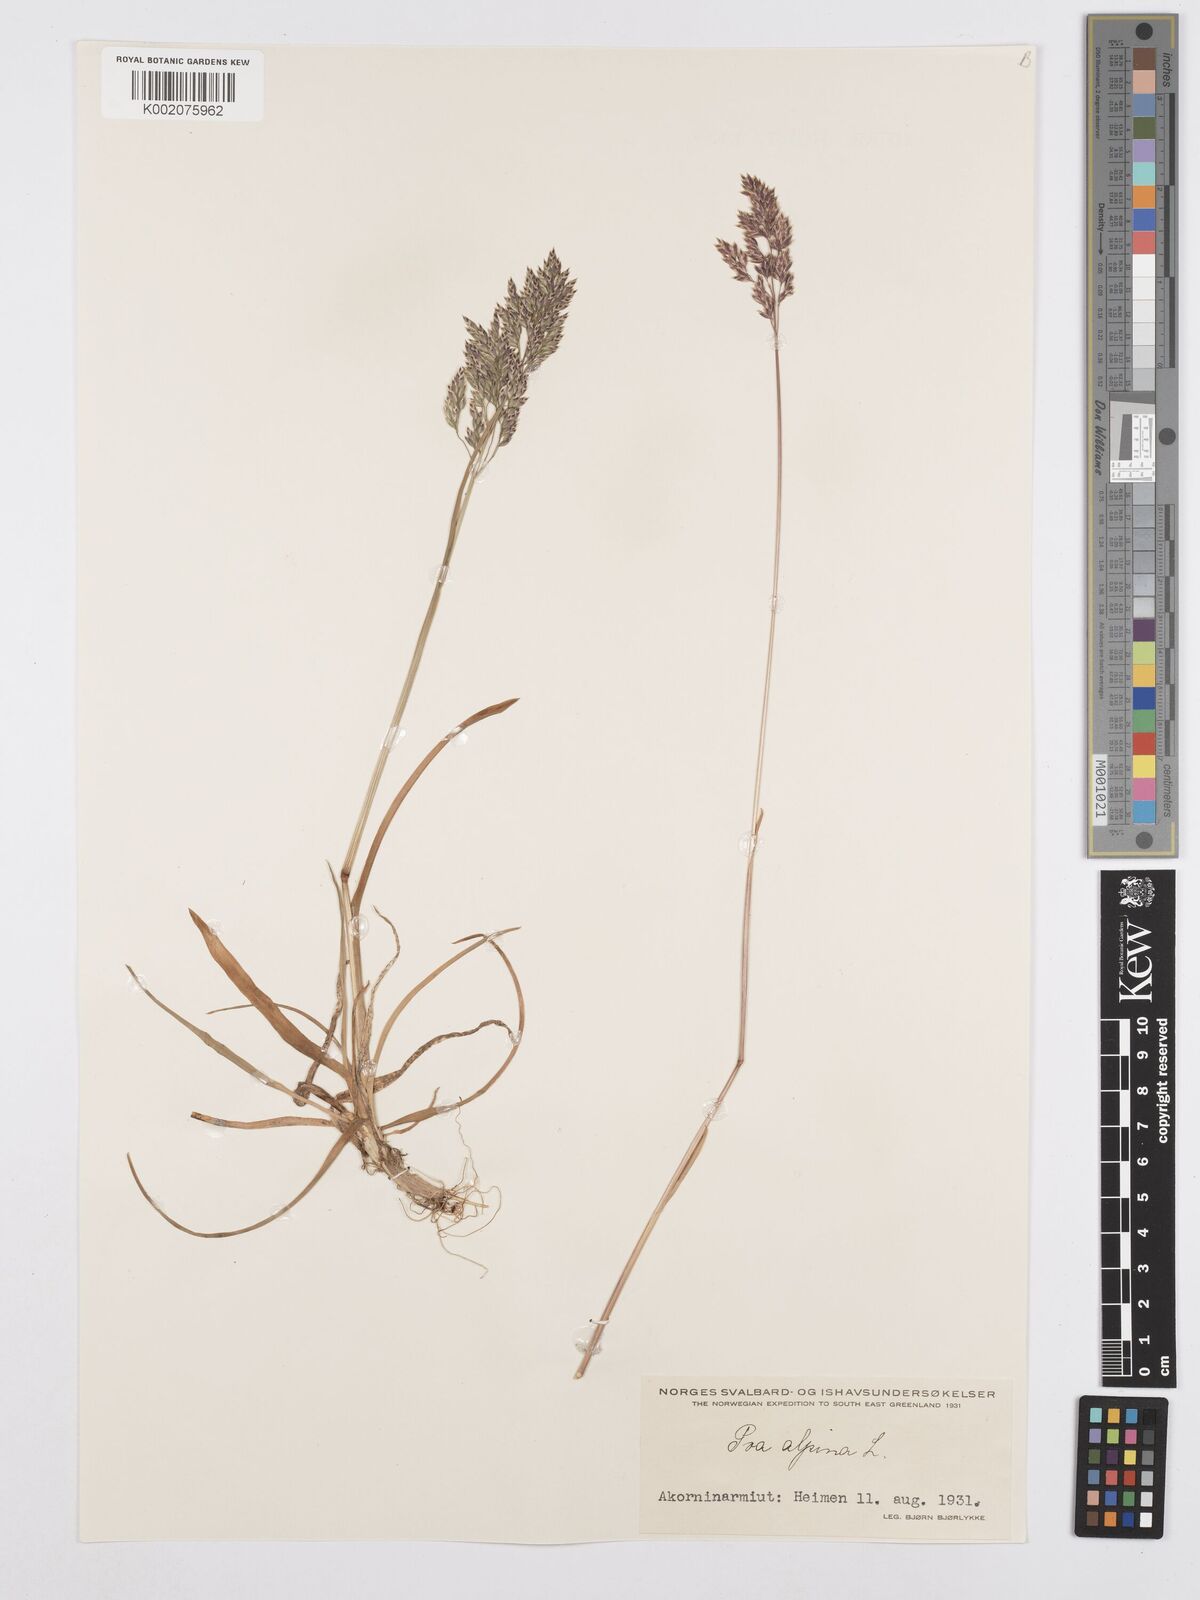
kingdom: Plantae
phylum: Tracheophyta
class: Liliopsida
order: Poales
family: Poaceae
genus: Poa
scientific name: Poa alpina
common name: Alpine bluegrass
